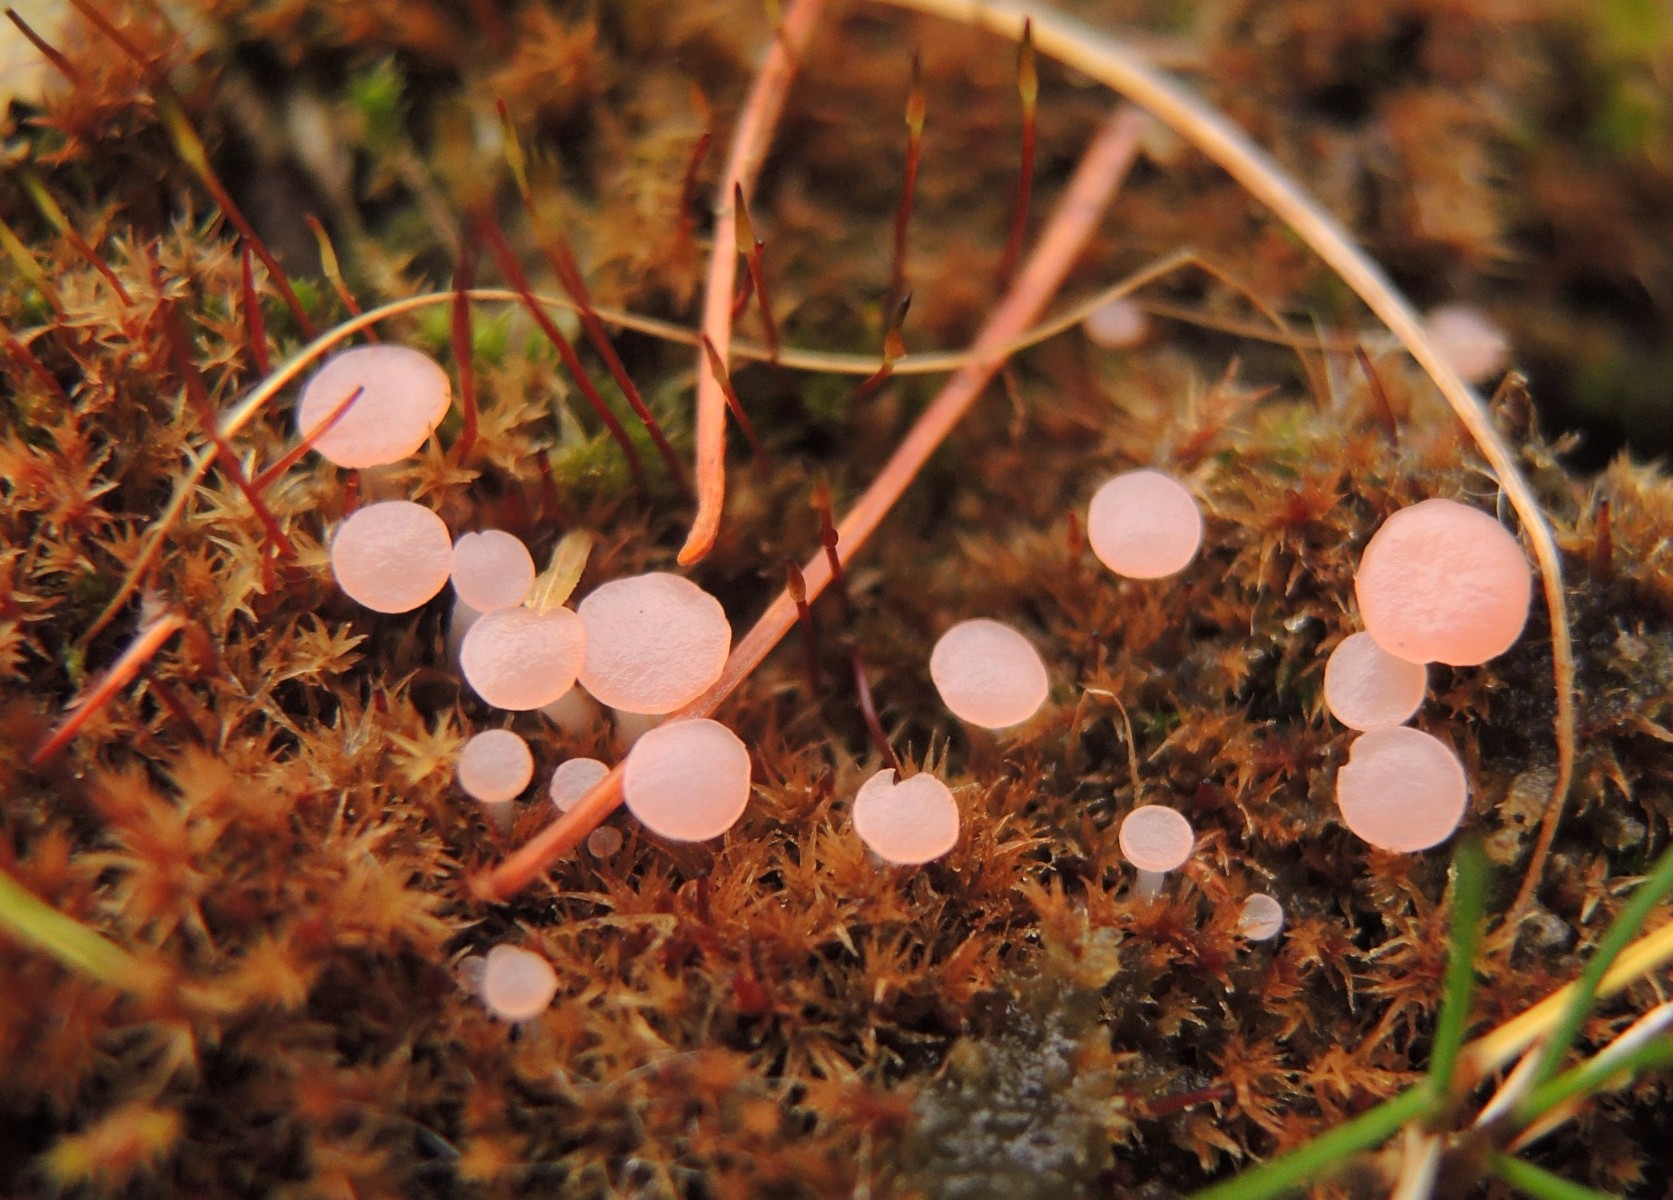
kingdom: Fungi
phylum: Ascomycota
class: Leotiomycetes
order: Helotiales
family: Hyaloscyphaceae
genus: Roseodiscus
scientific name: Roseodiscus formosus
